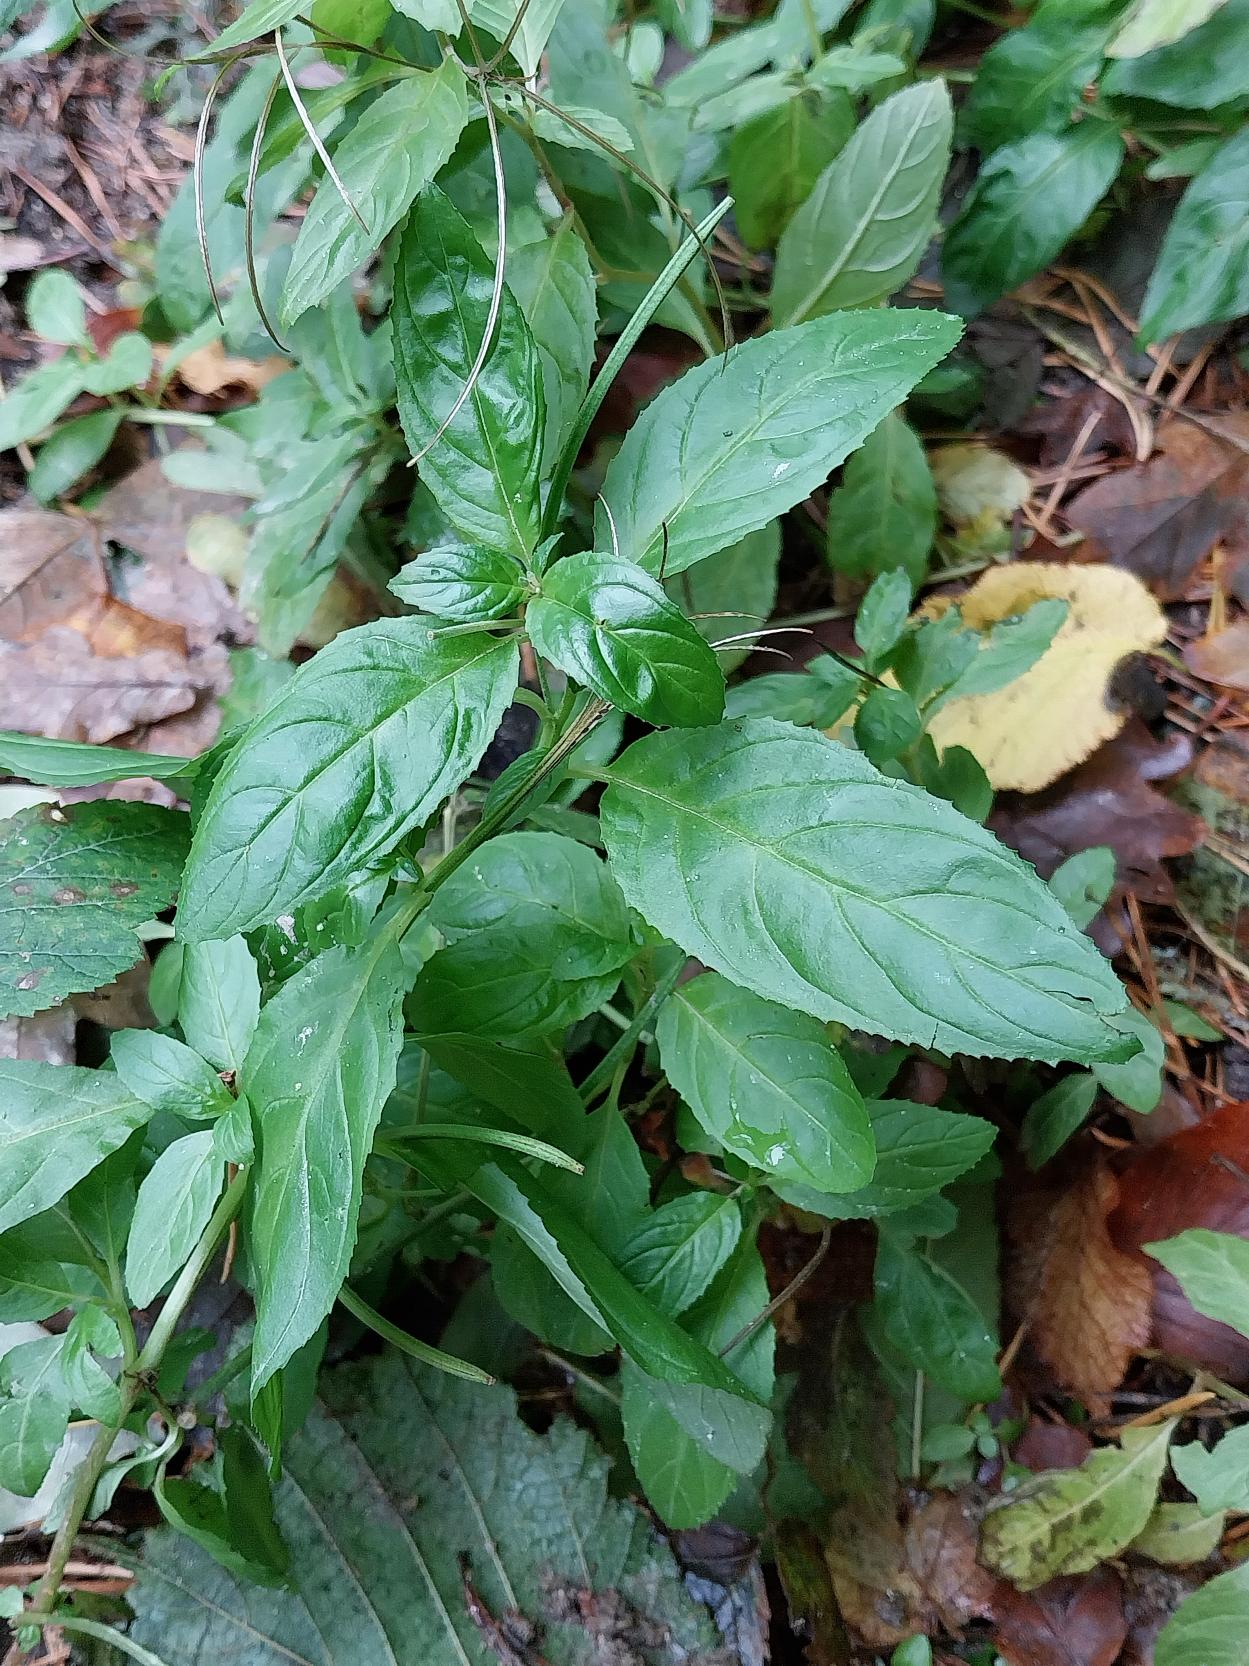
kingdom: Plantae
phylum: Tracheophyta
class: Magnoliopsida
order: Myrtales
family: Onagraceae
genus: Epilobium
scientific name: Epilobium roseum
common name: Rosen-dueurt
